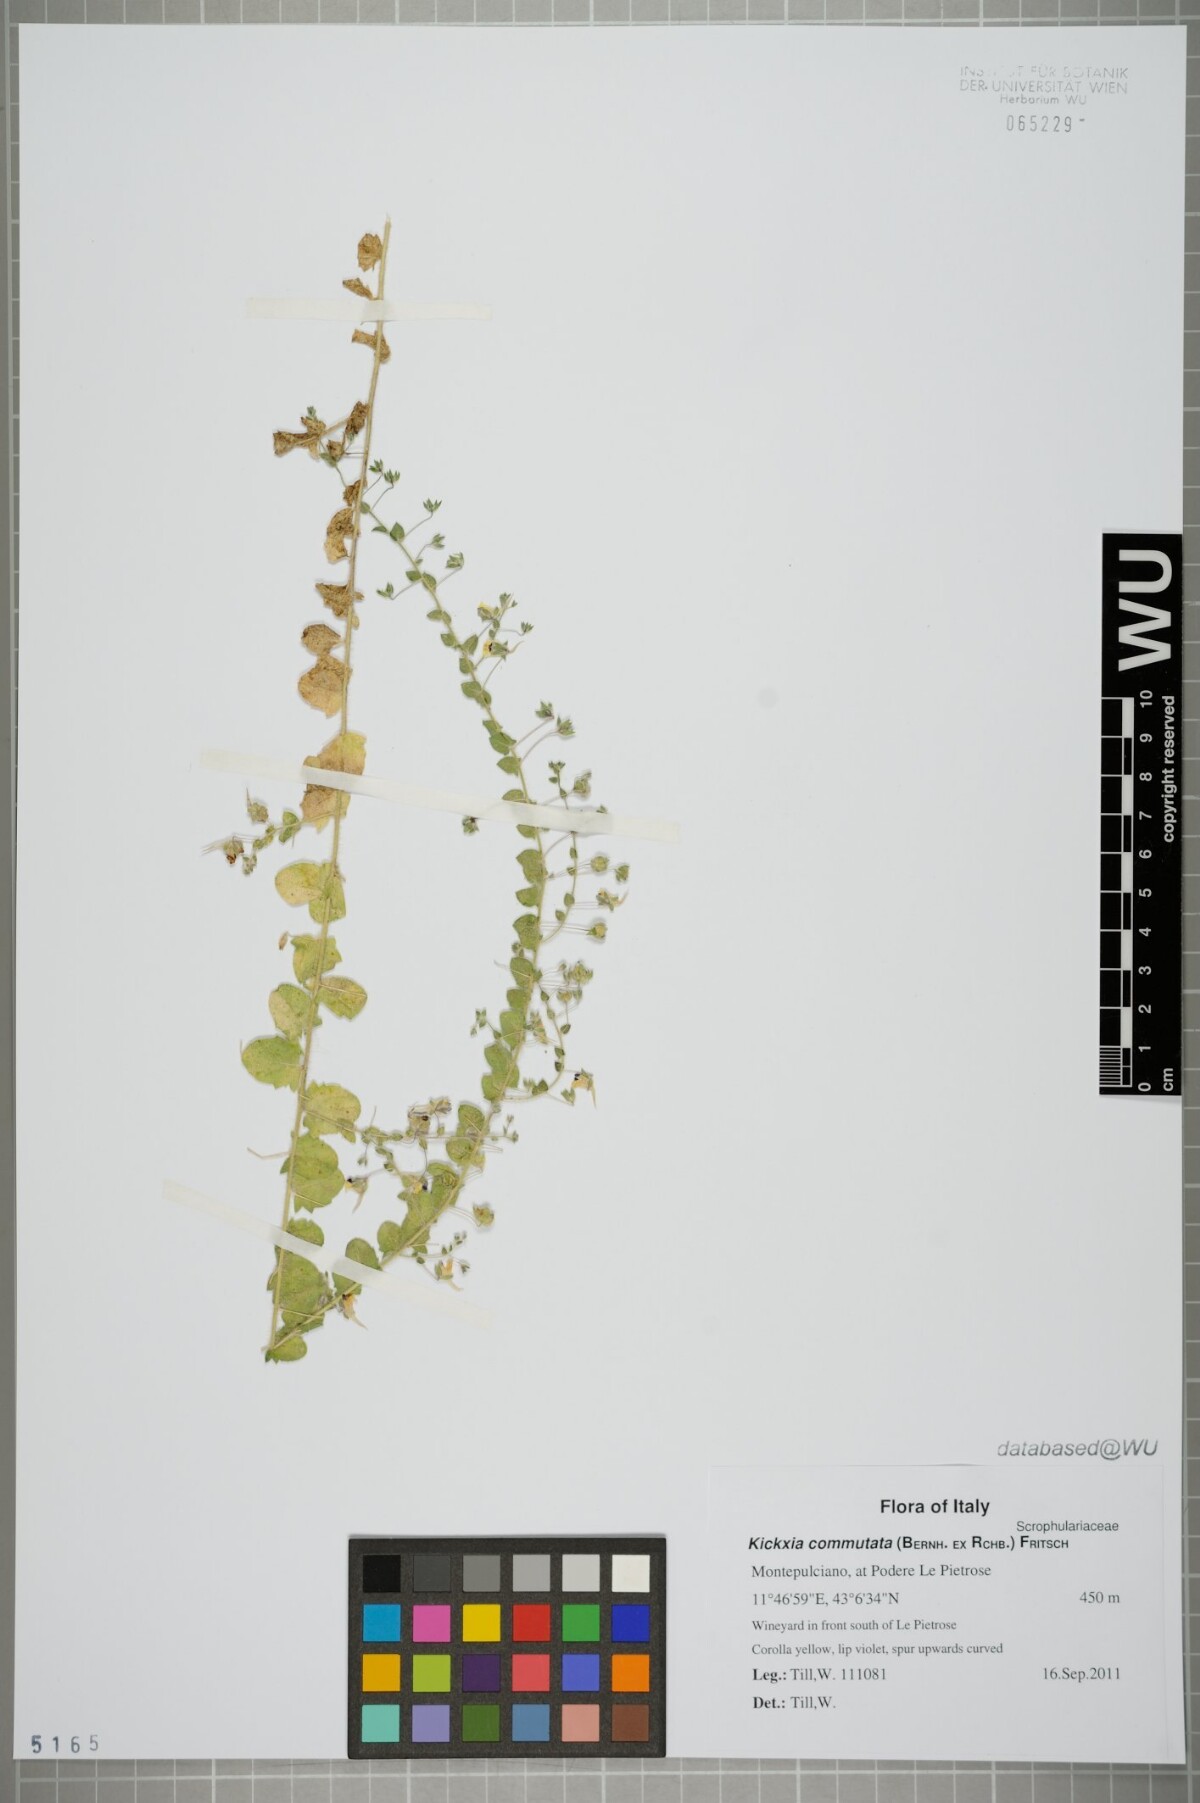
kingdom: Plantae
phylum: Tracheophyta
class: Magnoliopsida
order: Lamiales
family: Plantaginaceae
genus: Kickxia
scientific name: Kickxia commutata
